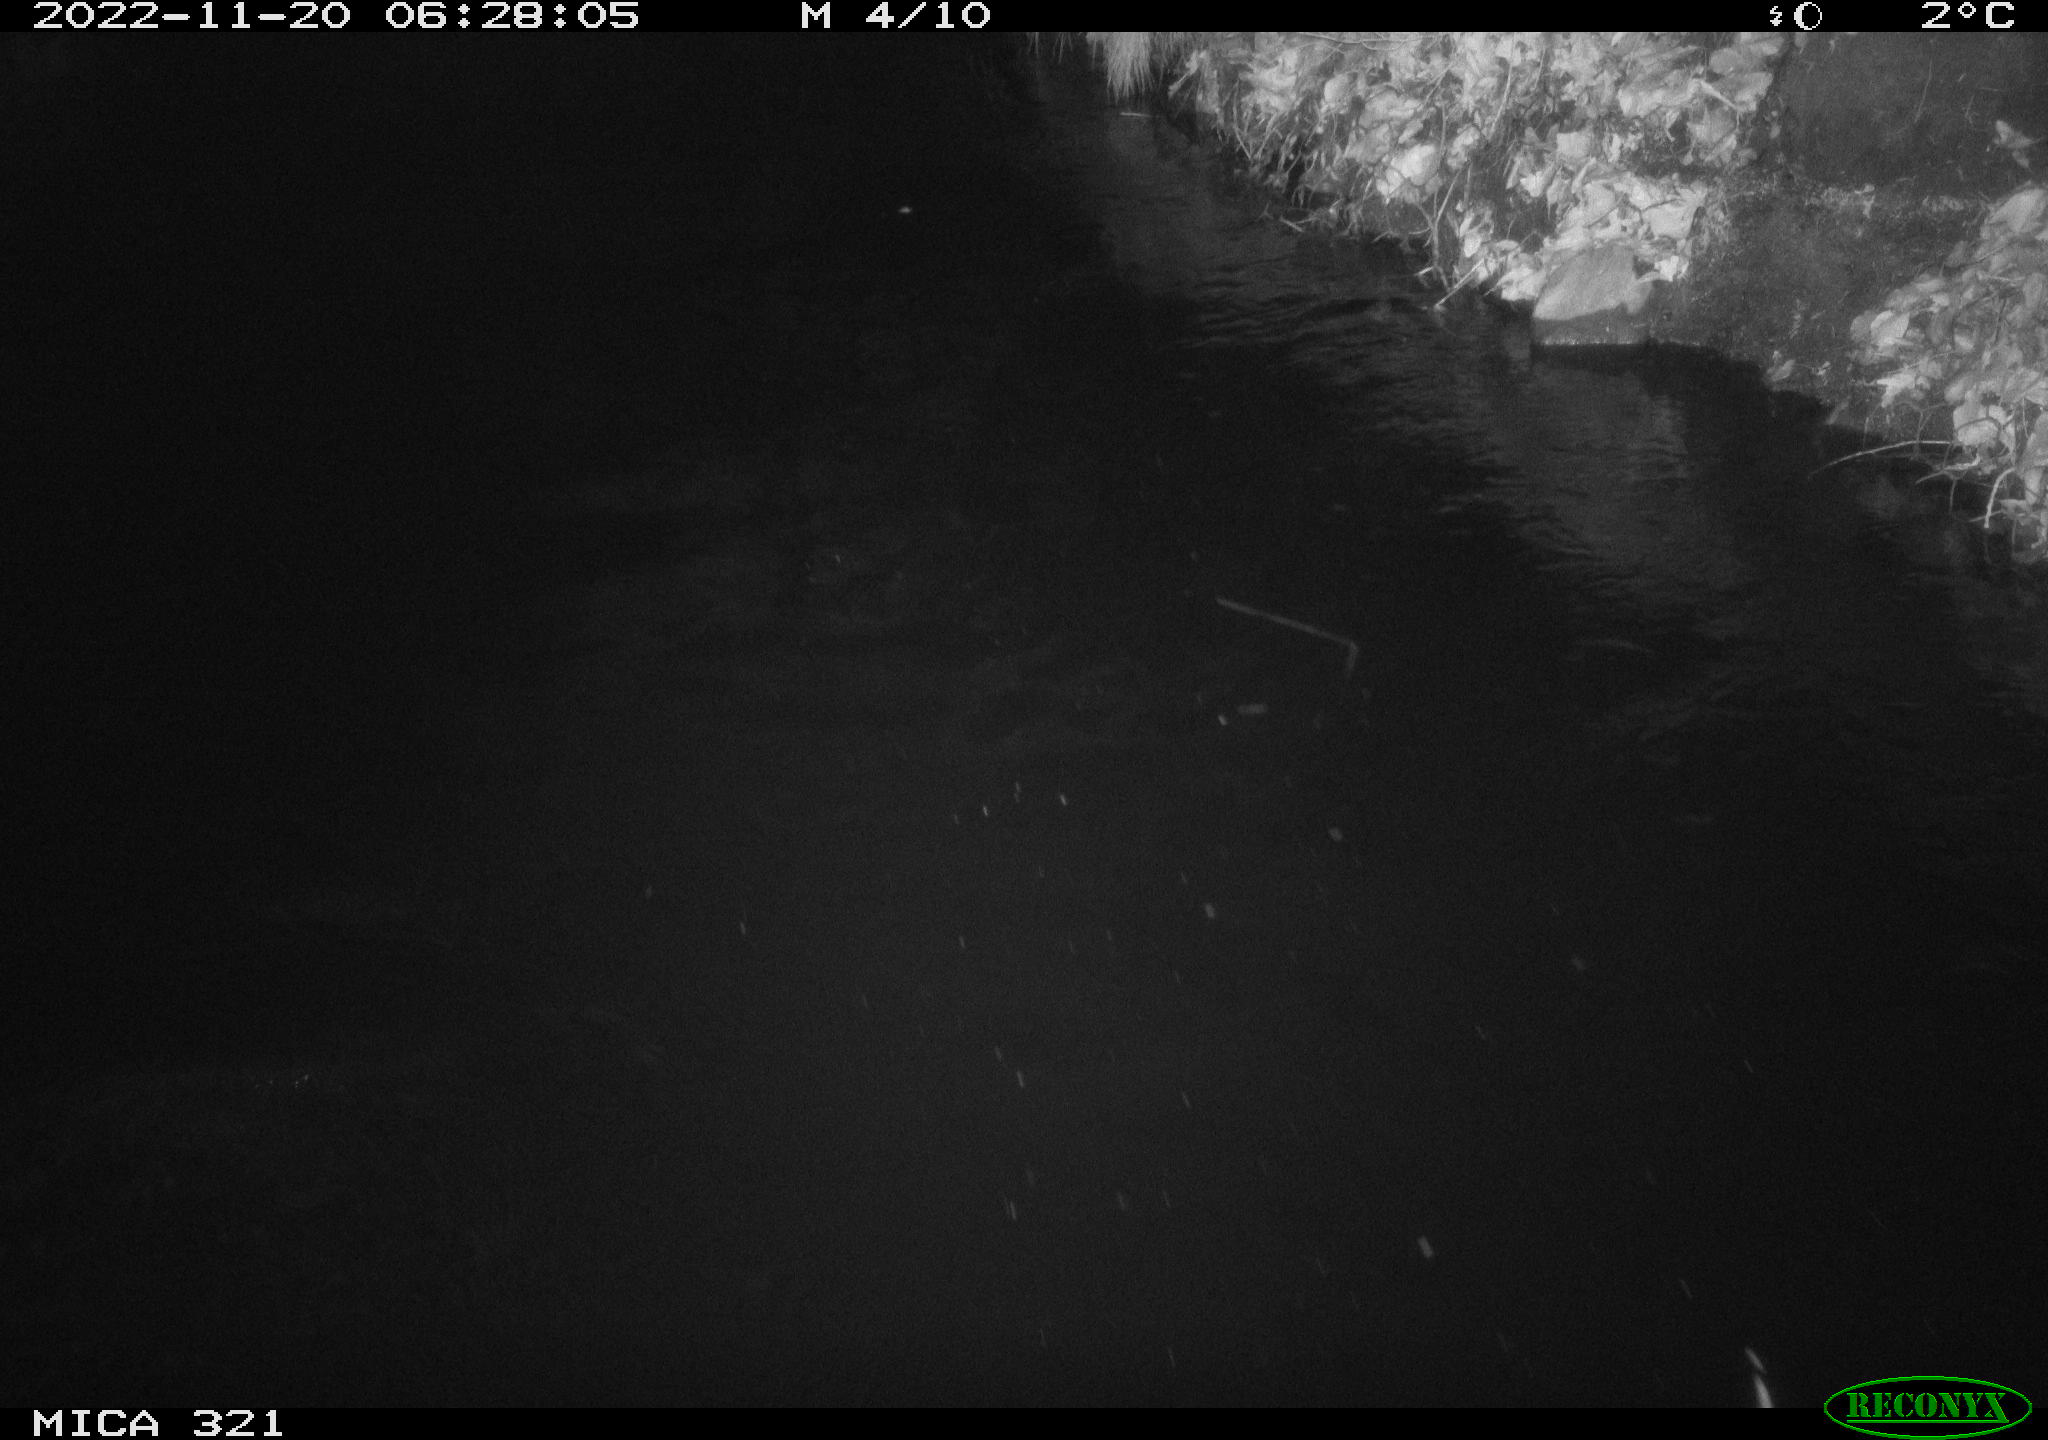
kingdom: Animalia
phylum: Chordata
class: Mammalia
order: Rodentia
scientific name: Rodentia
